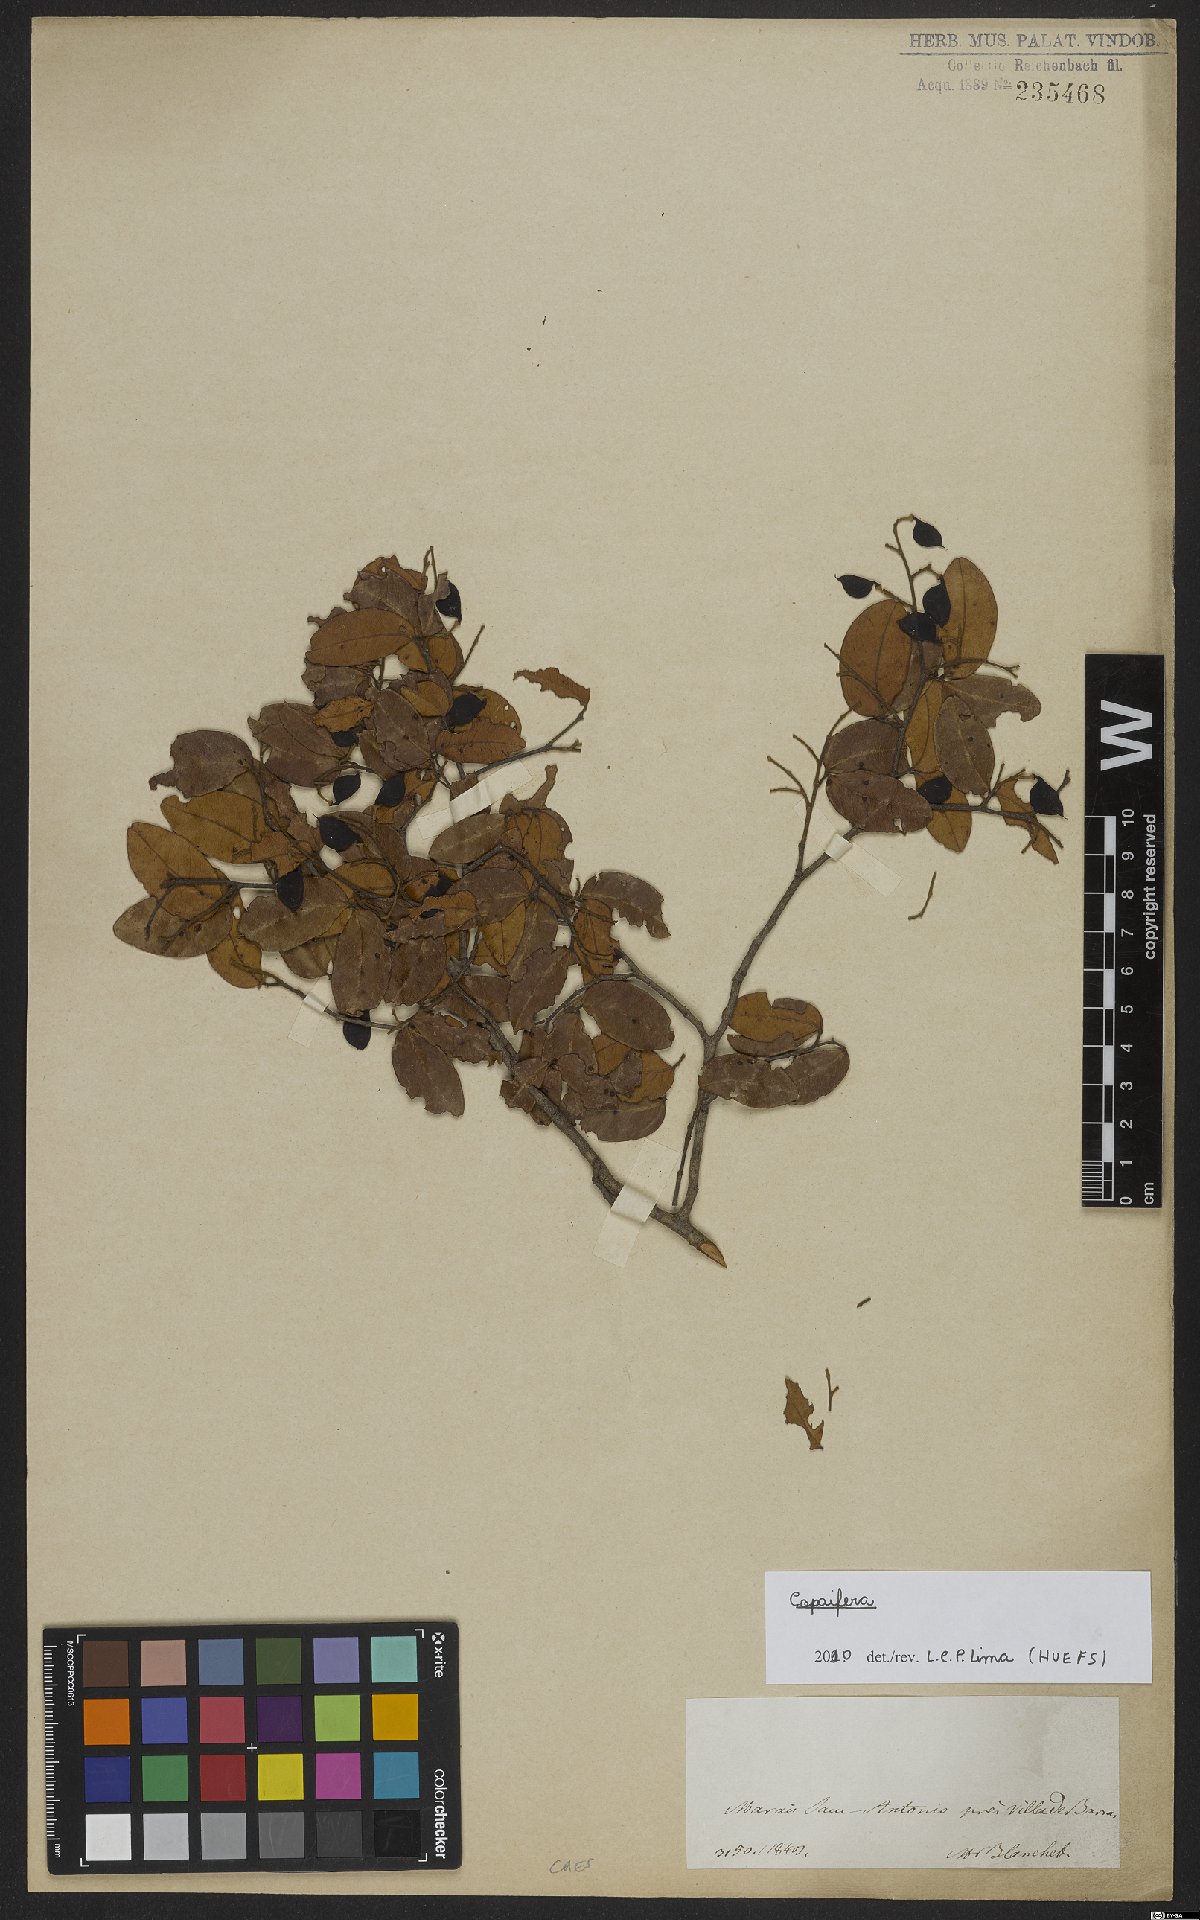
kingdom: Plantae
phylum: Tracheophyta
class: Magnoliopsida
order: Fabales
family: Fabaceae
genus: Copaifera
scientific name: Copaifera
